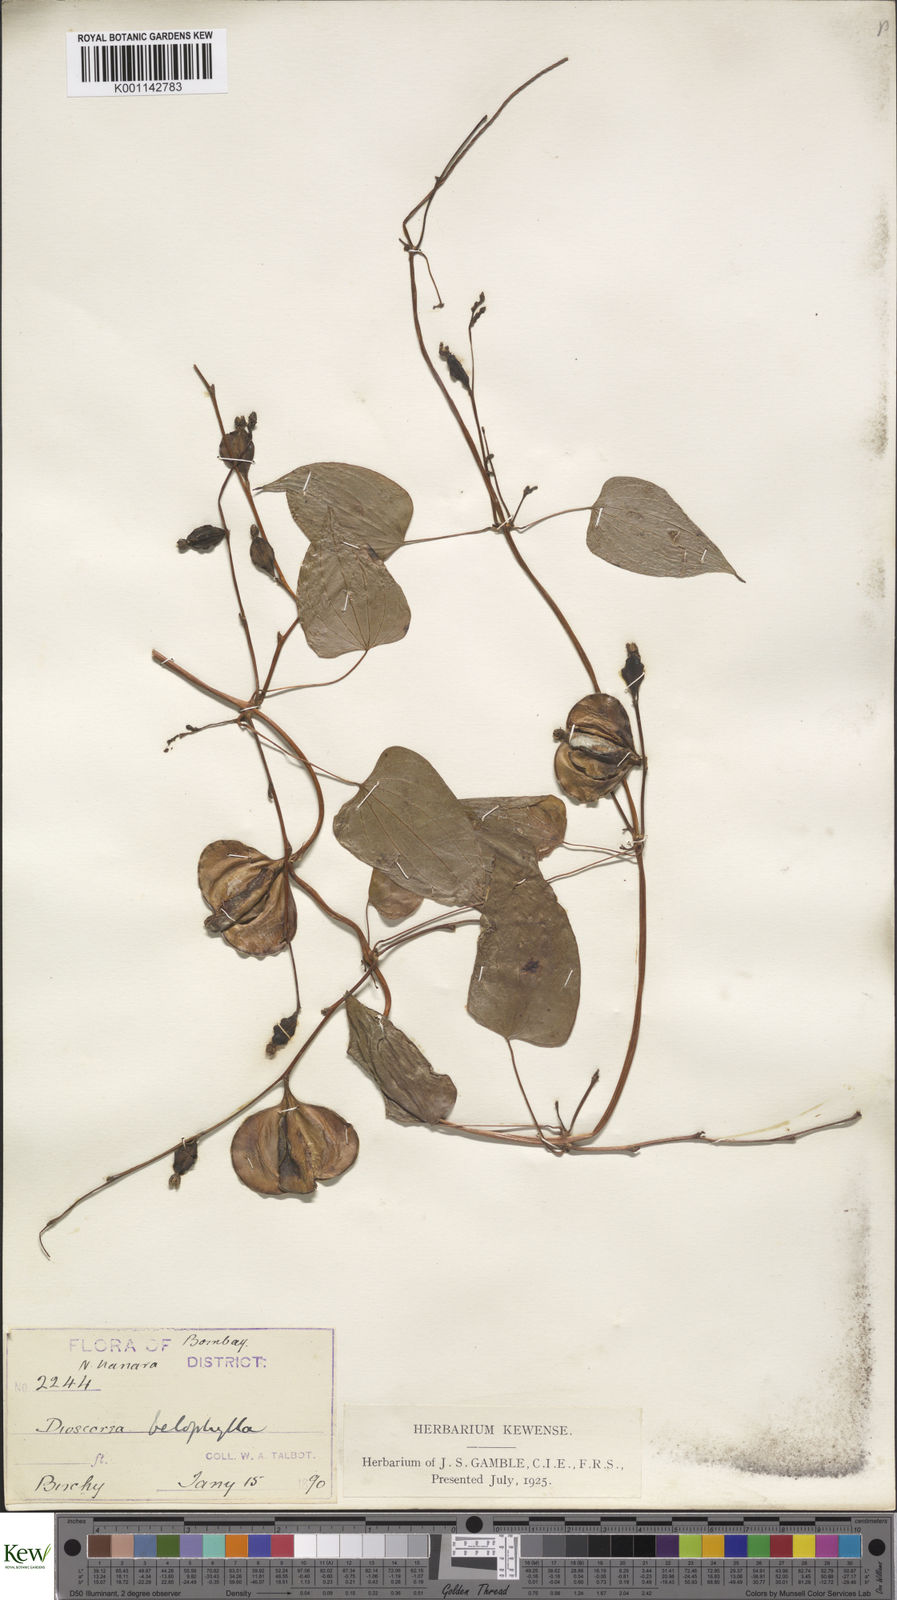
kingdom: Plantae
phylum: Tracheophyta
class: Liliopsida
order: Dioscoreales
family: Dioscoreaceae
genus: Dioscorea
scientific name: Dioscorea belophylla
